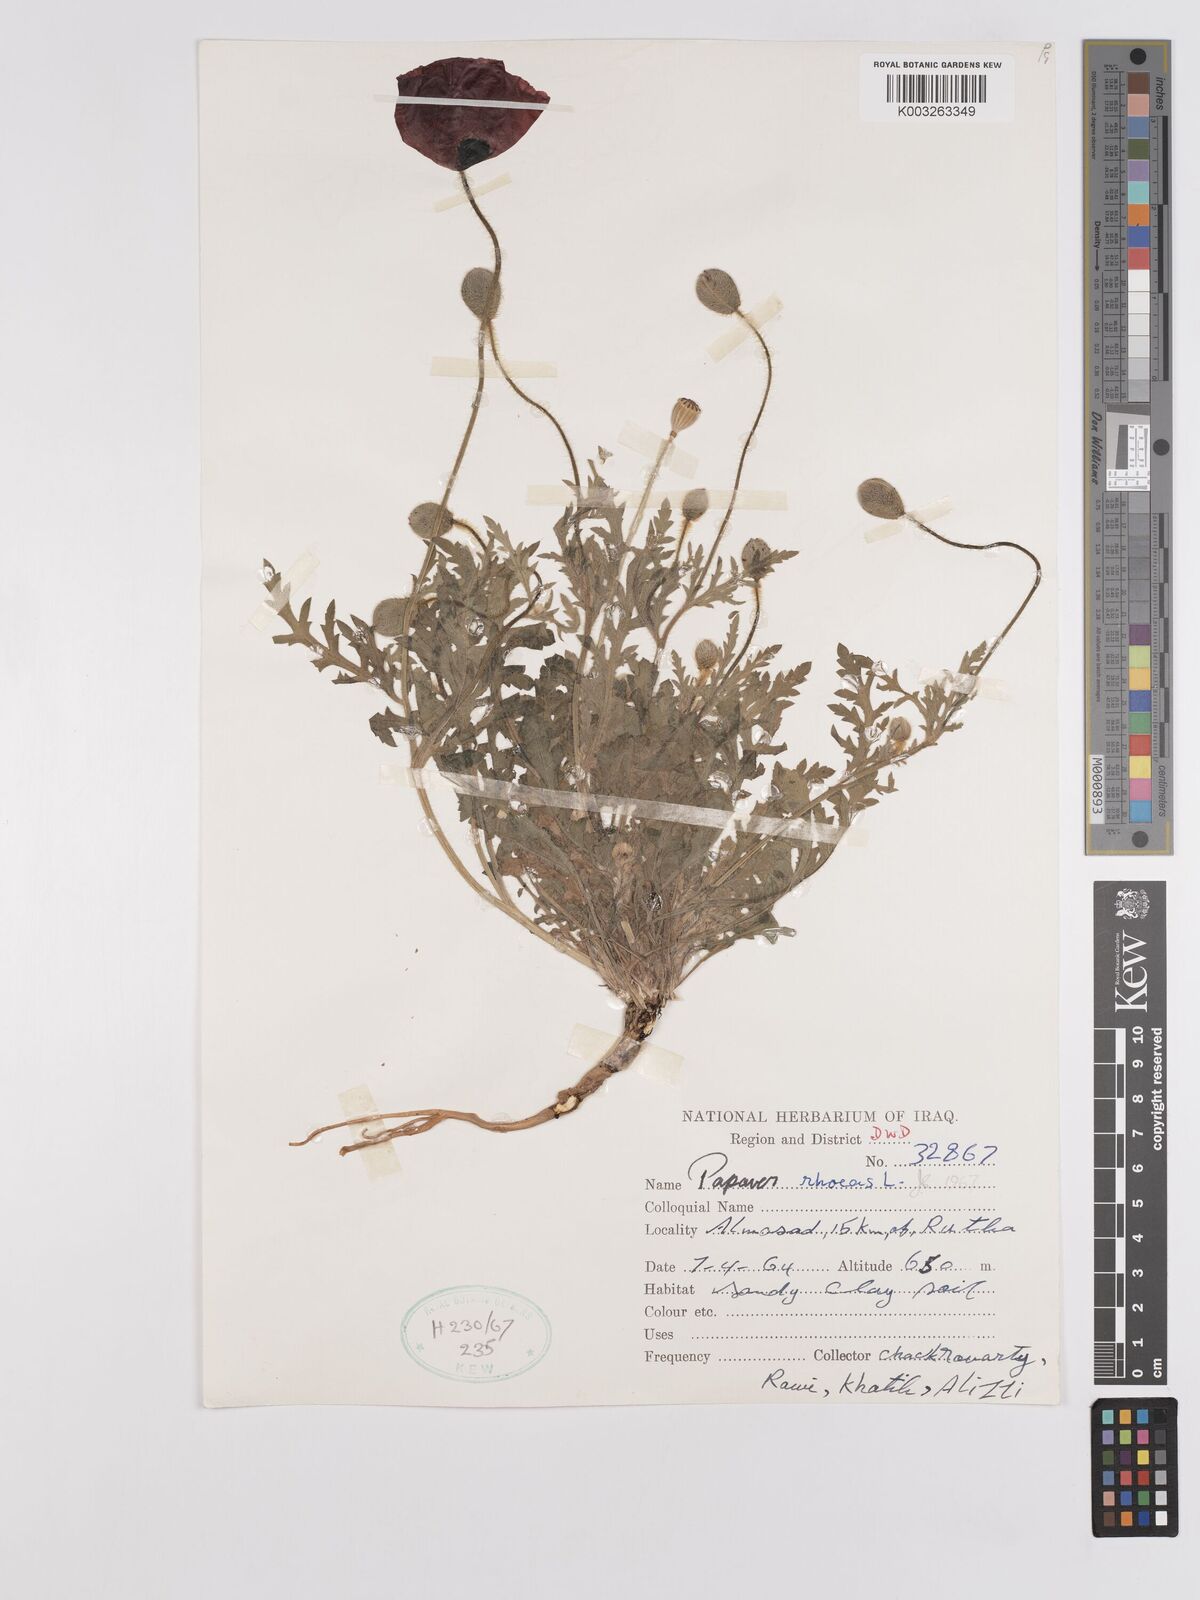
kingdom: Plantae
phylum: Tracheophyta
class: Magnoliopsida
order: Ranunculales
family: Papaveraceae
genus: Papaver
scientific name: Papaver rhoeas
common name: Corn poppy
